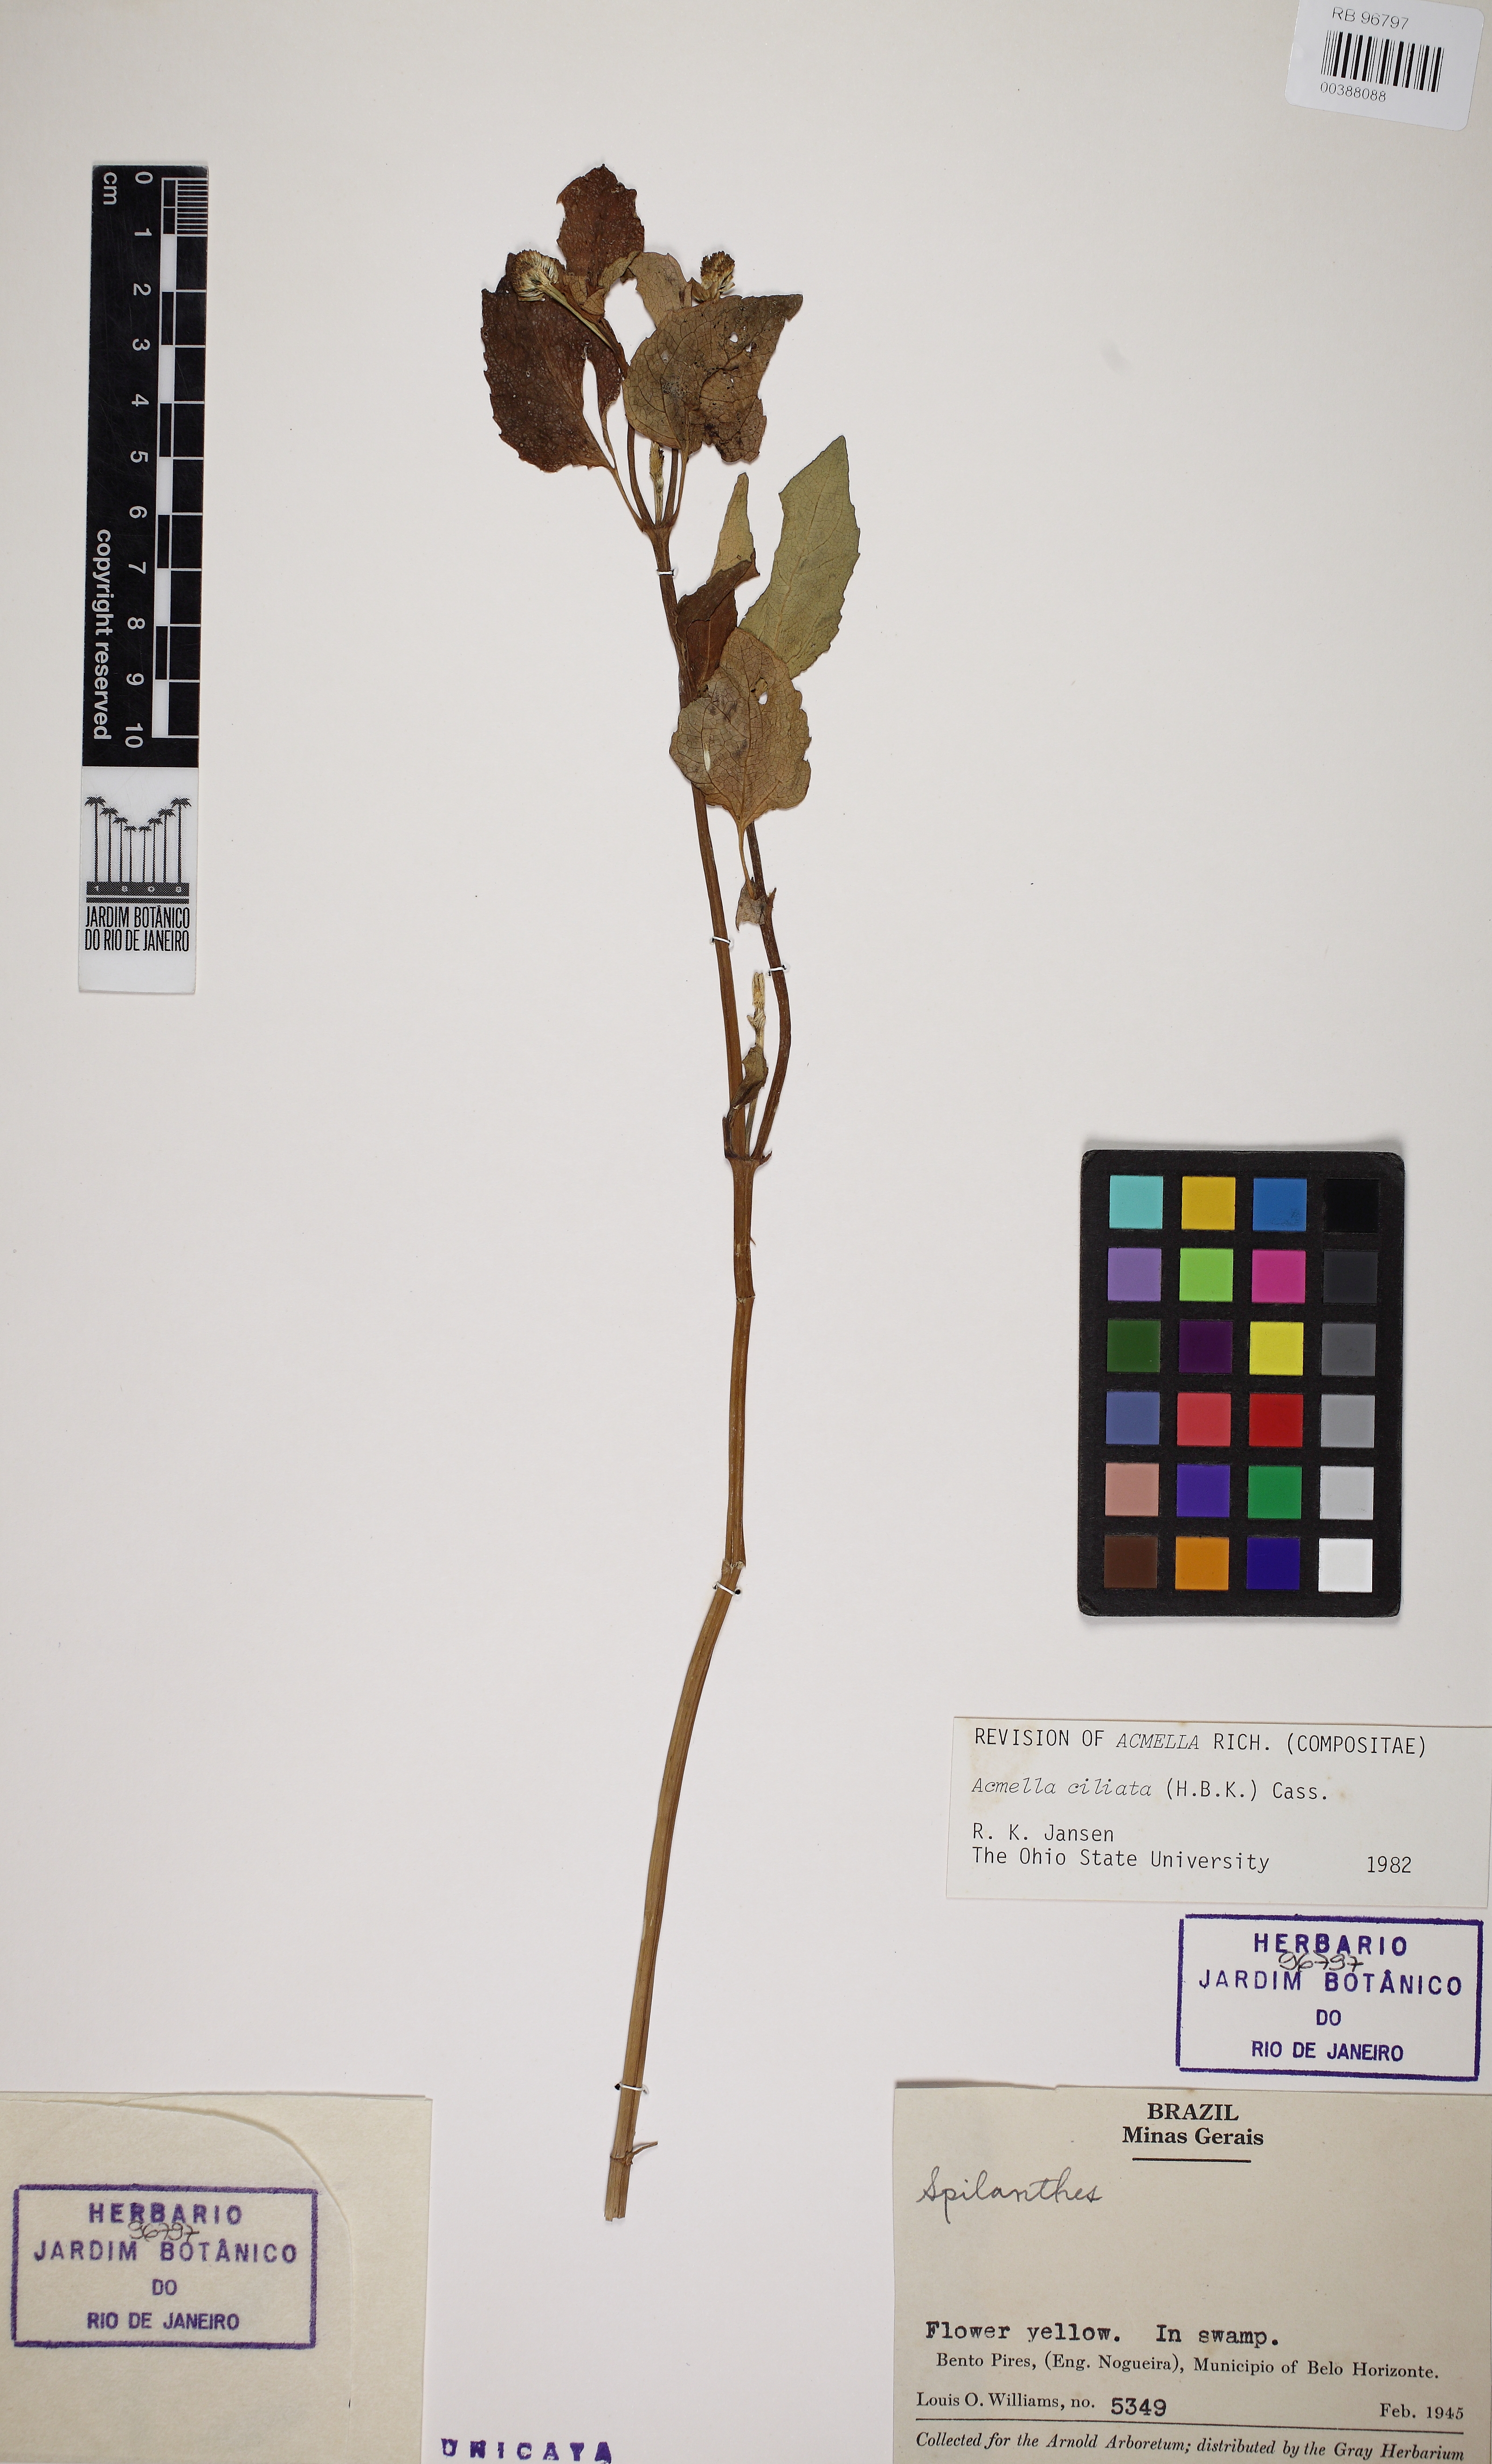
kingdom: Plantae
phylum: Tracheophyta
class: Magnoliopsida
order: Asterales
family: Asteraceae
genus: Acmella
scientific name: Acmella ciliata
